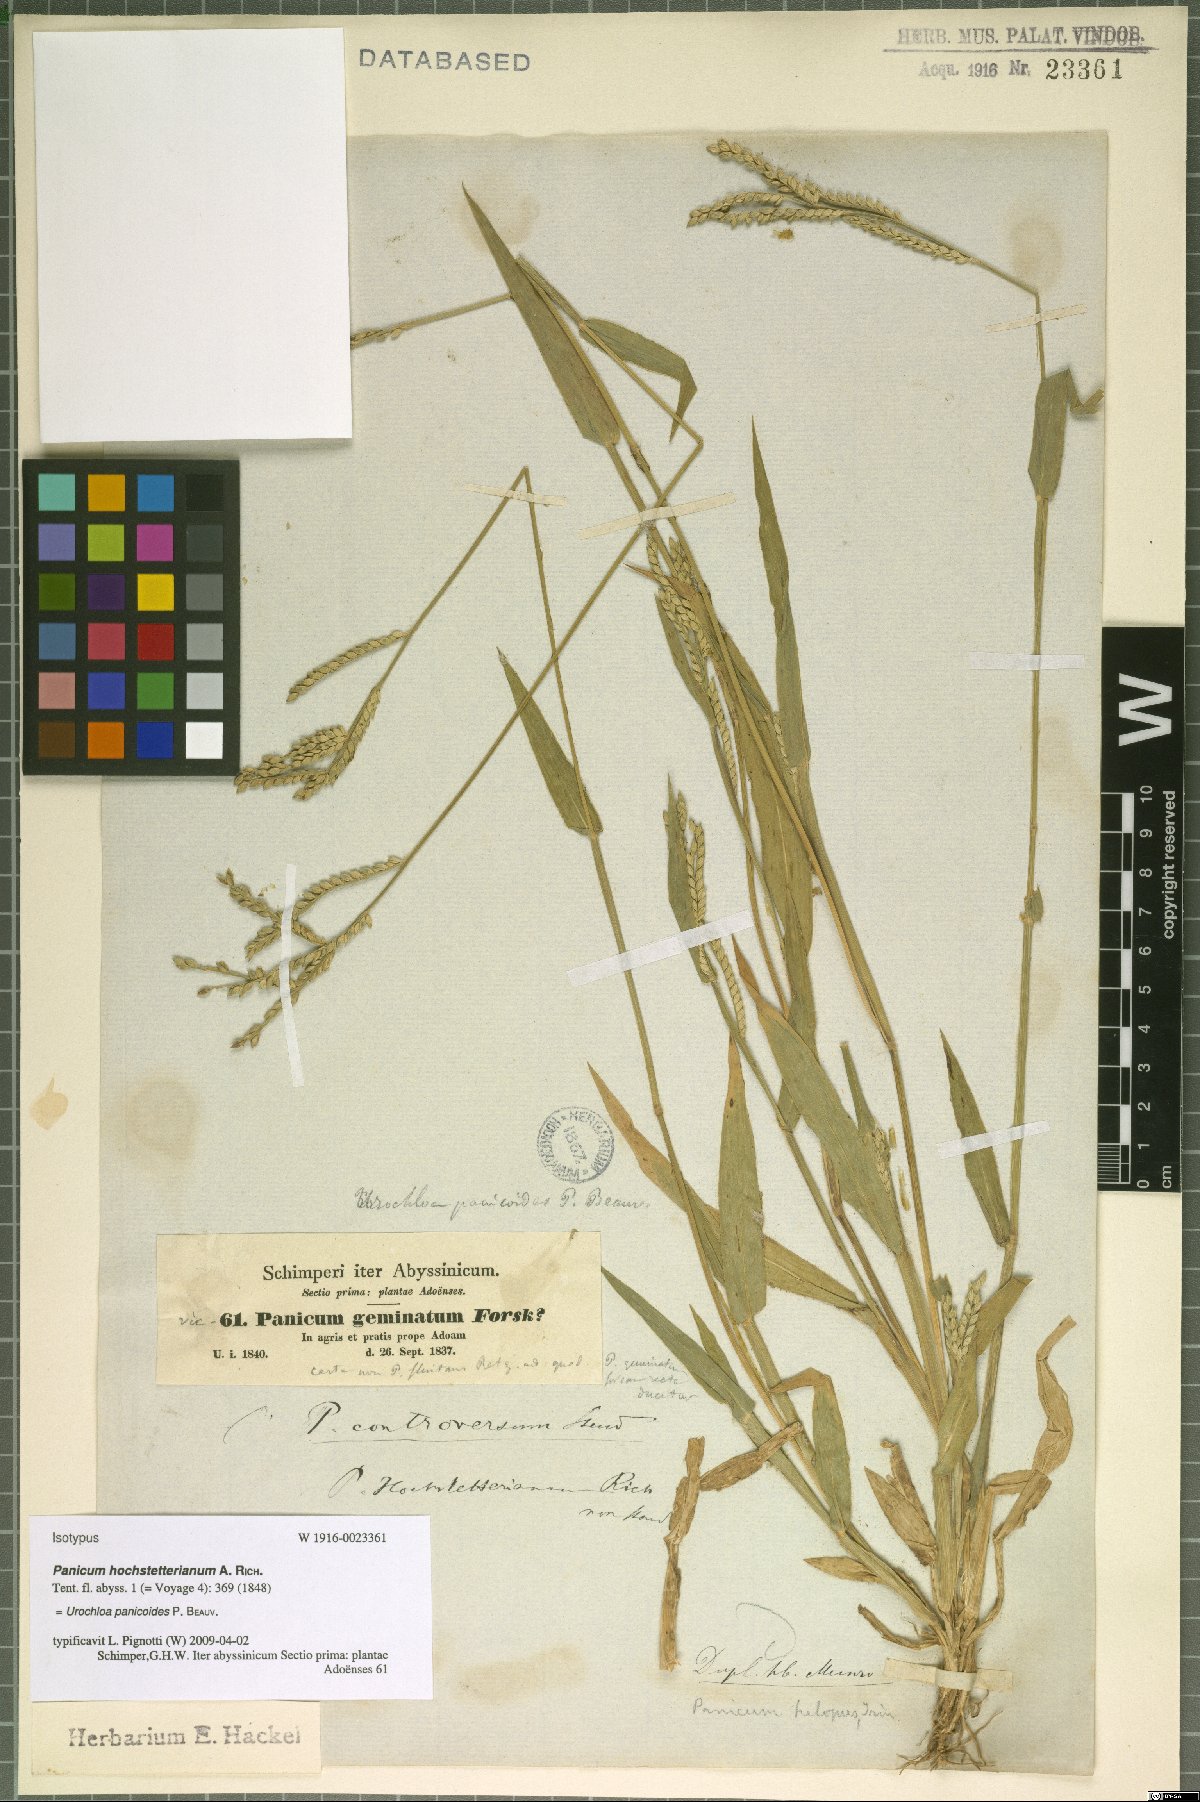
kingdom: Plantae
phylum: Tracheophyta
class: Liliopsida
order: Poales
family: Poaceae
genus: Urochloa
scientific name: Urochloa panicoides
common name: Sharp-flowered signal-grass
